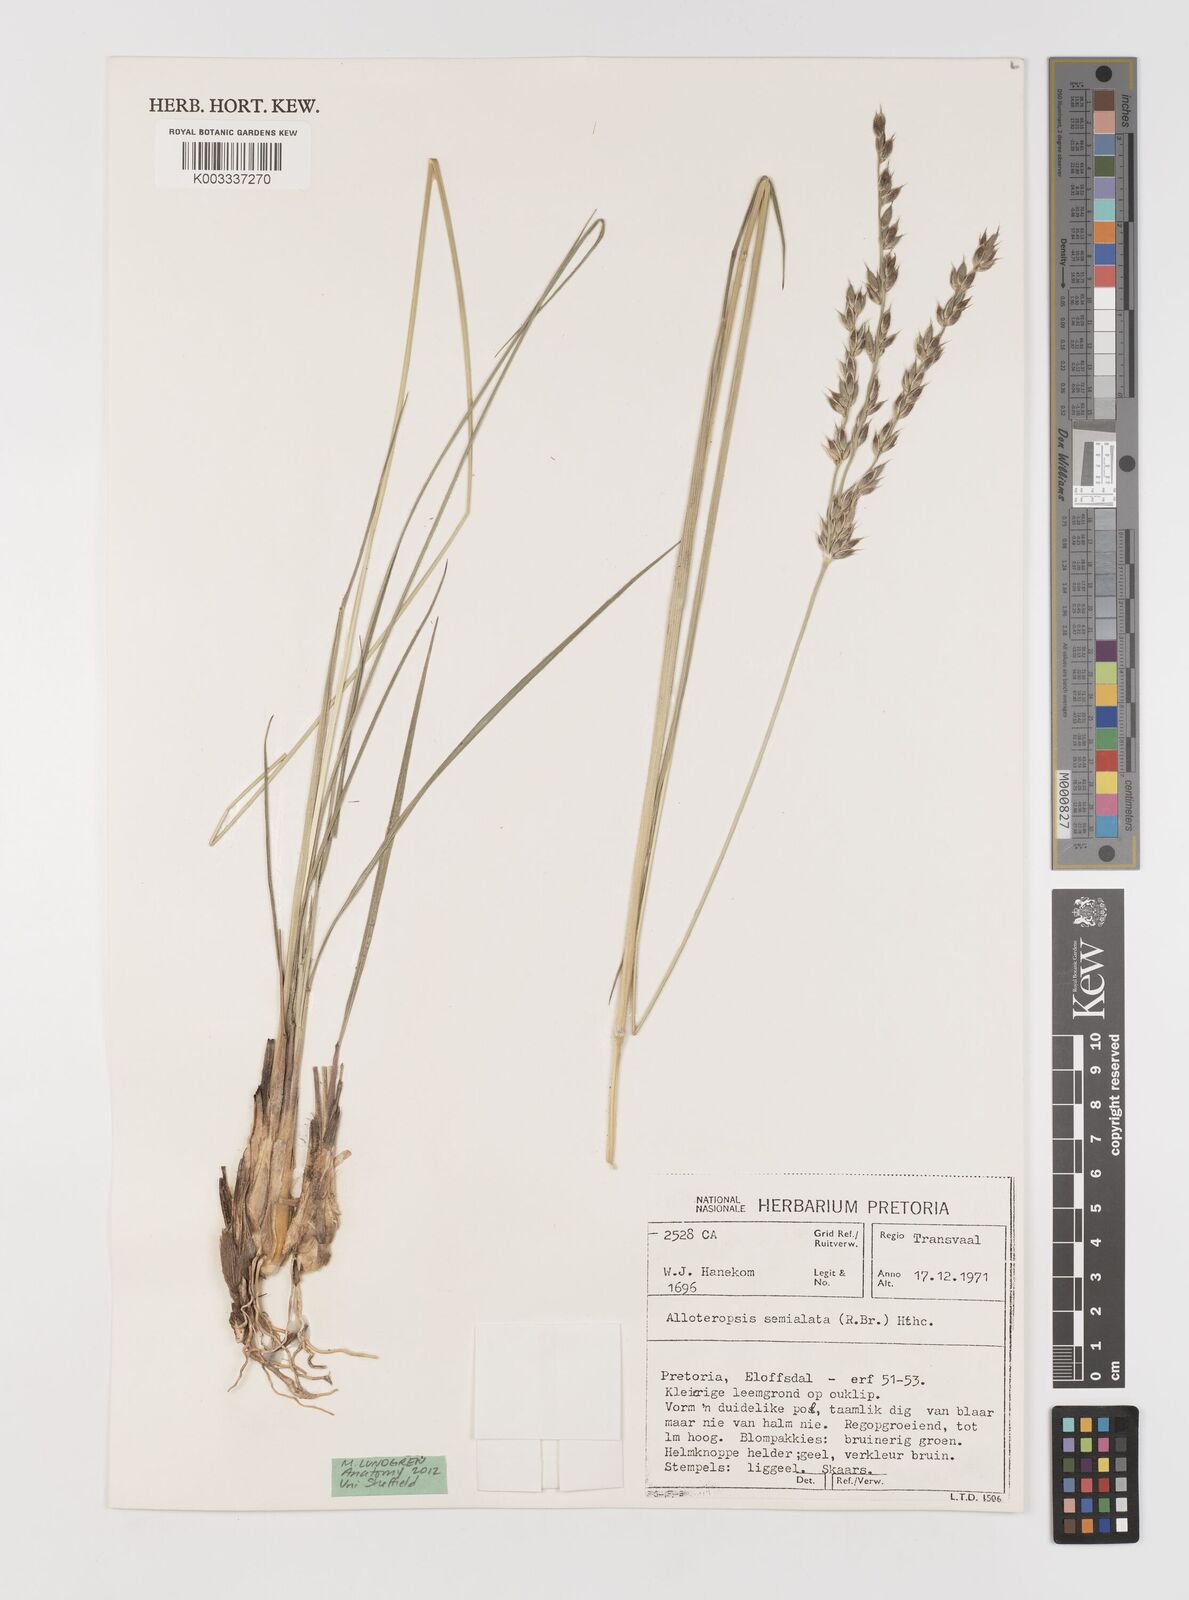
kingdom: Plantae
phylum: Tracheophyta
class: Liliopsida
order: Poales
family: Poaceae
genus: Alloteropsis
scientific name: Alloteropsis semialata
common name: Cockatoo grass
